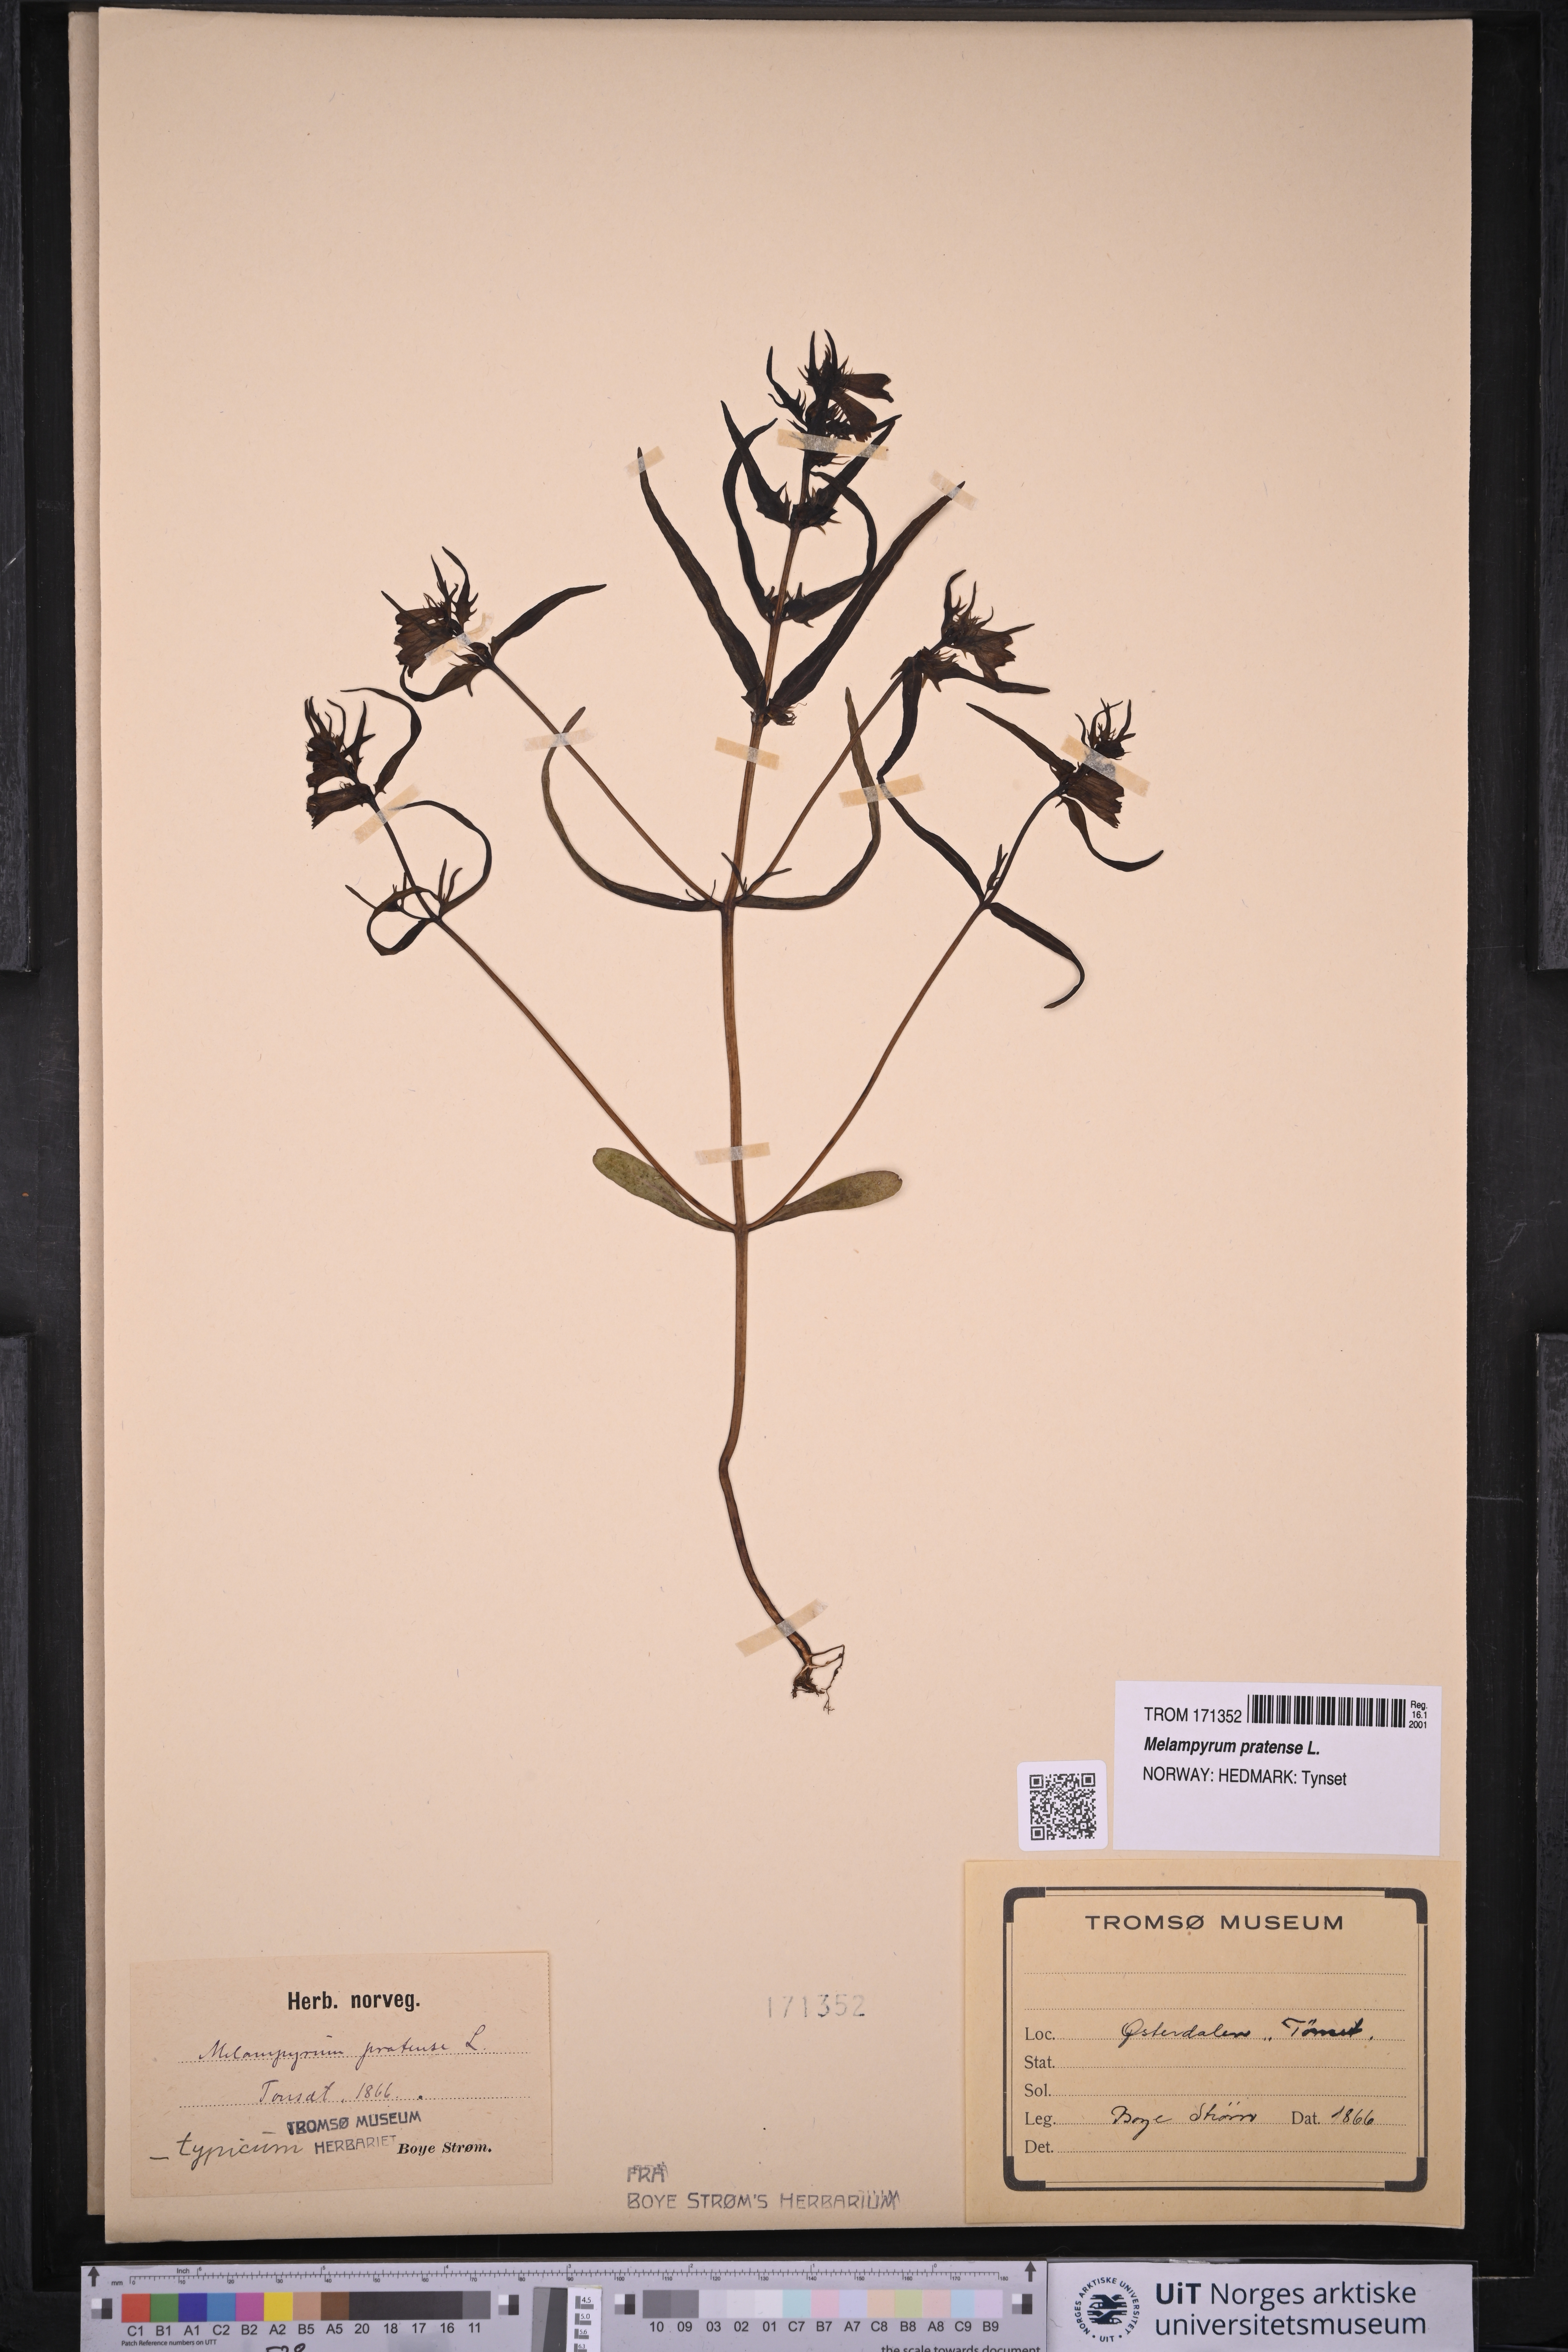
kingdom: Plantae
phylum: Tracheophyta
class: Magnoliopsida
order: Lamiales
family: Orobanchaceae
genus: Melampyrum
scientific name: Melampyrum pratense
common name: Common cow-wheat
